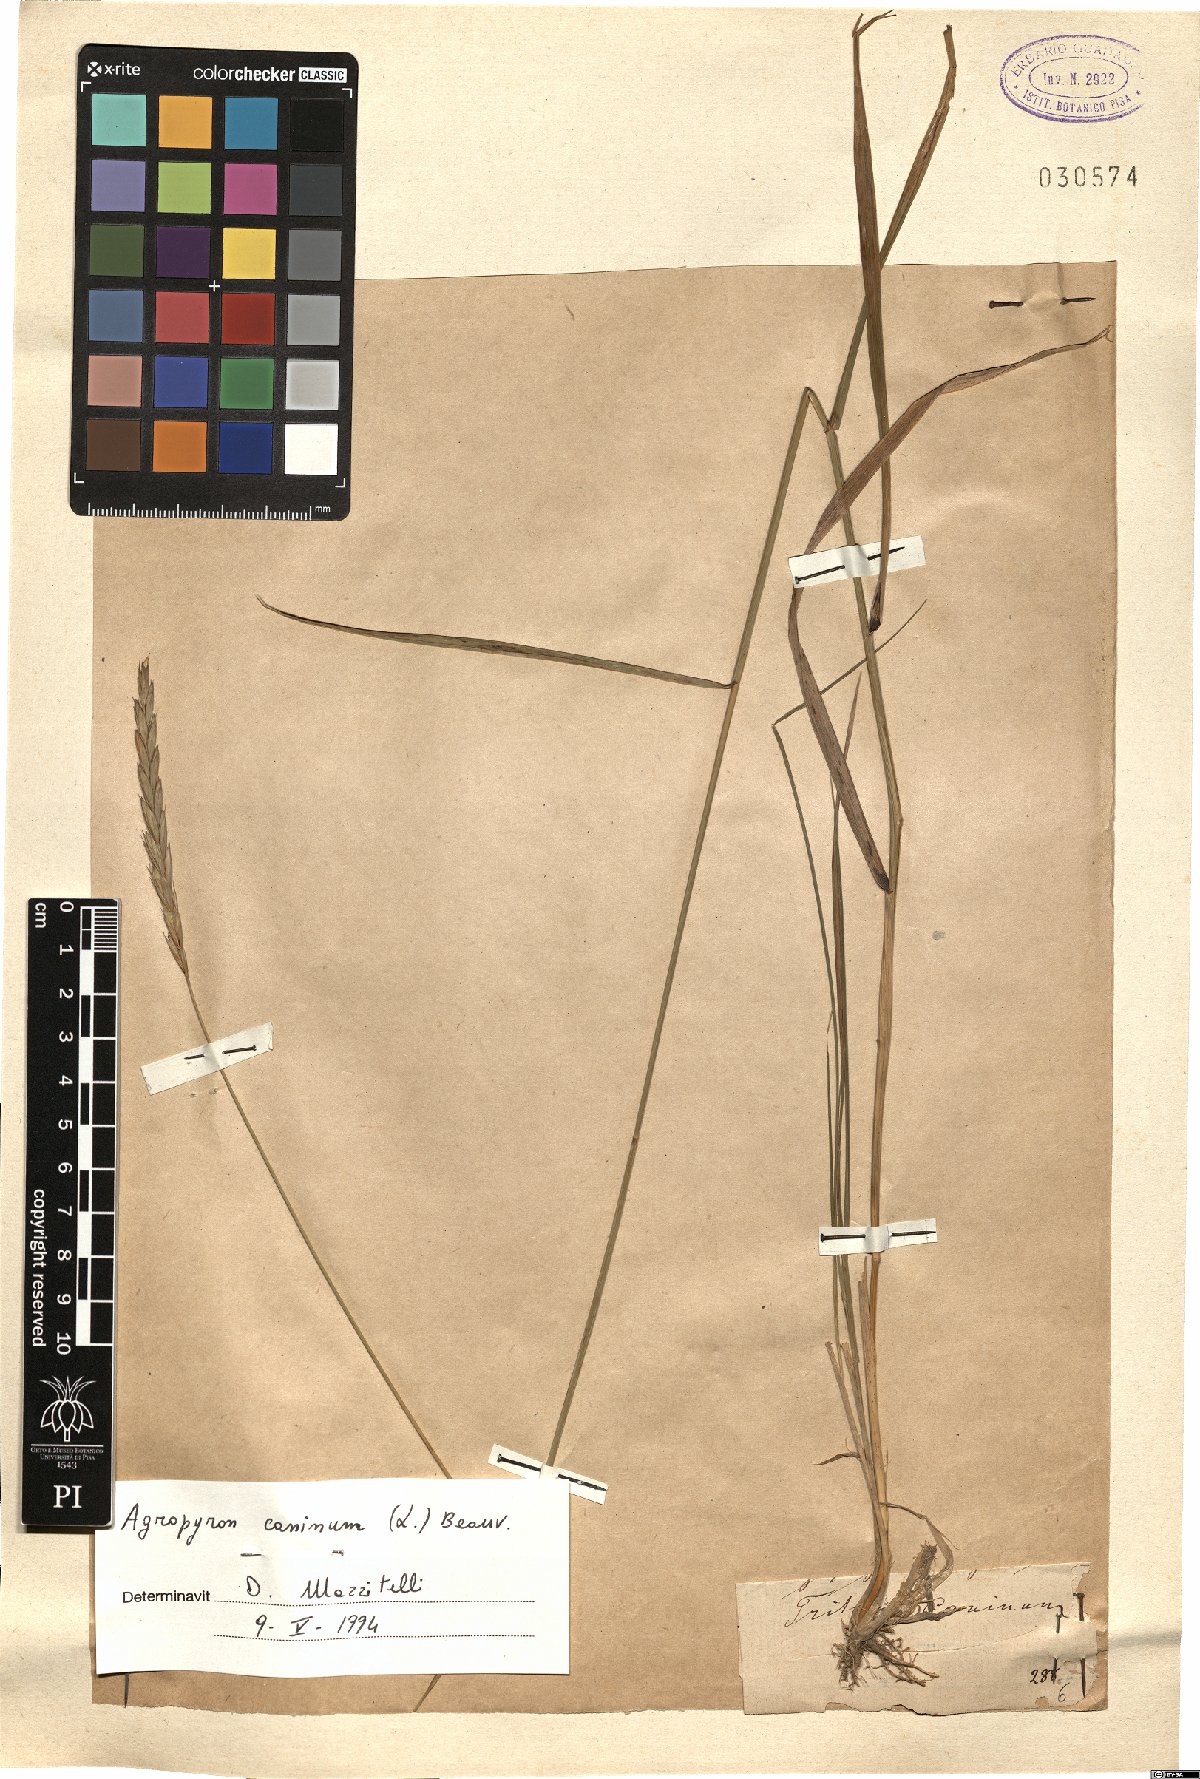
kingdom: Plantae
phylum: Tracheophyta
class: Liliopsida
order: Poales
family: Poaceae
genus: Elymus
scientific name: Elymus caninus
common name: Bearded couch
